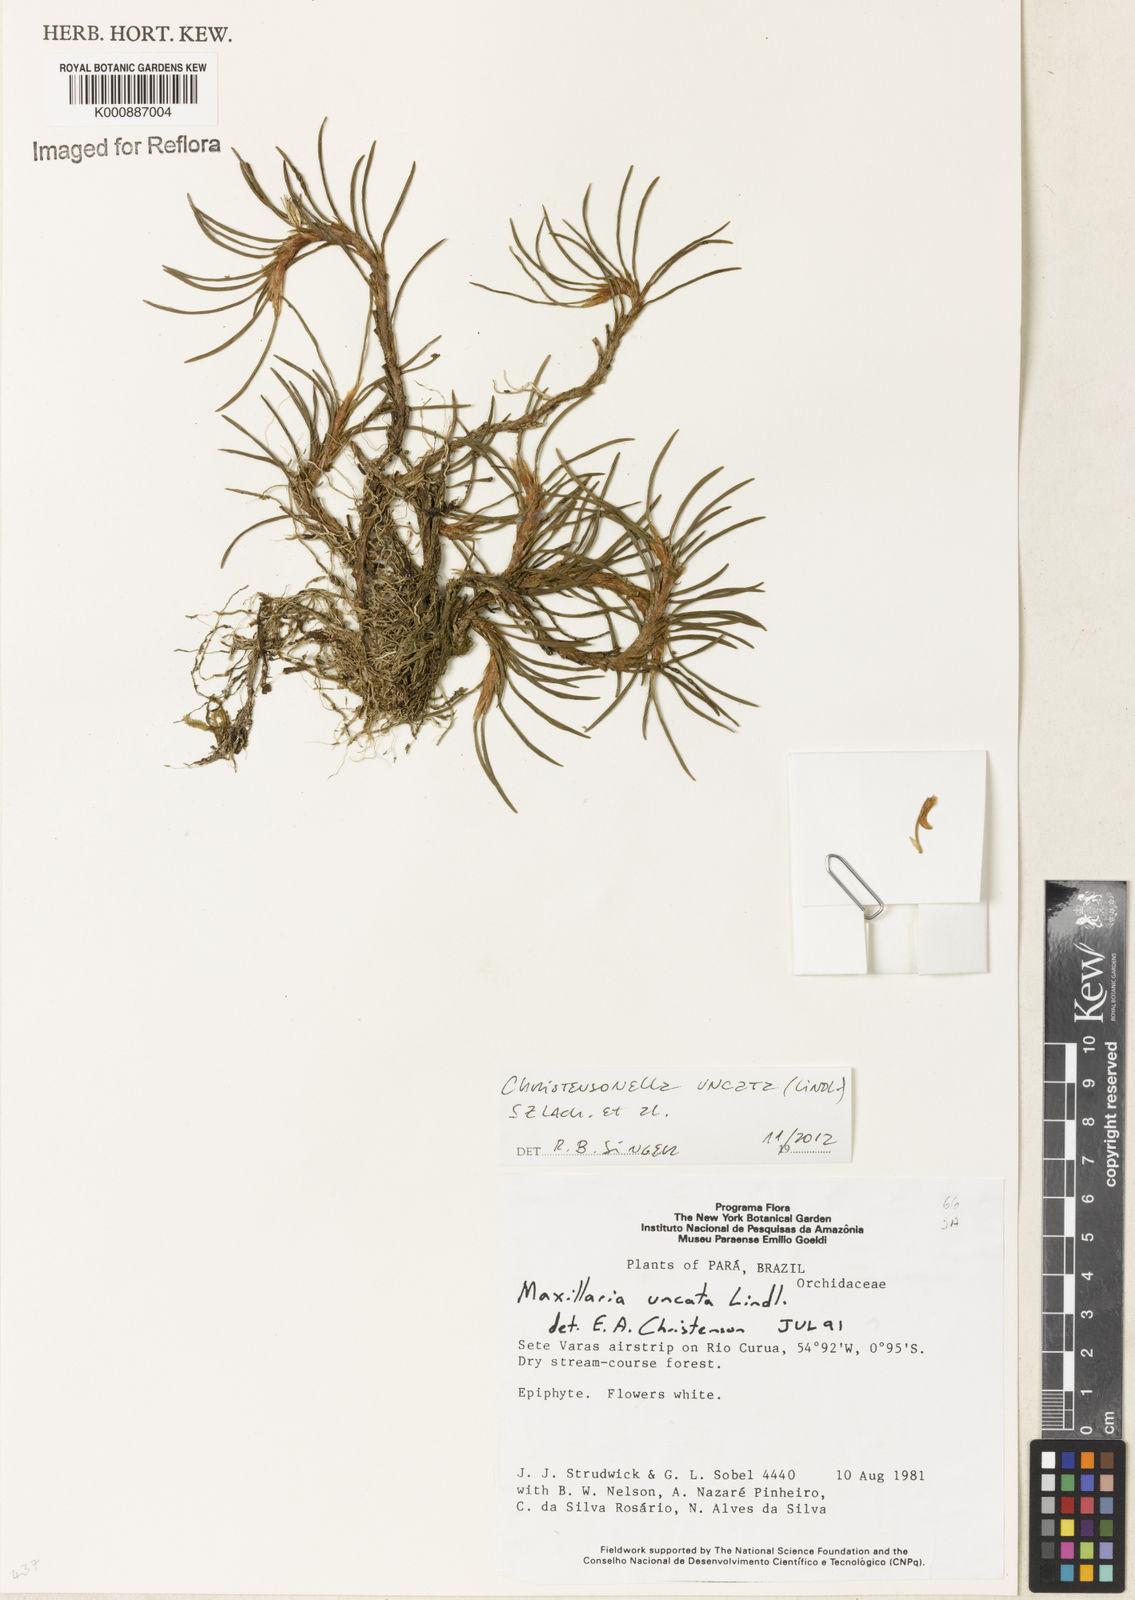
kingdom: Plantae
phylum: Tracheophyta
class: Liliopsida
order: Asparagales
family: Orchidaceae
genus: Maxillaria
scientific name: Maxillaria uncata
